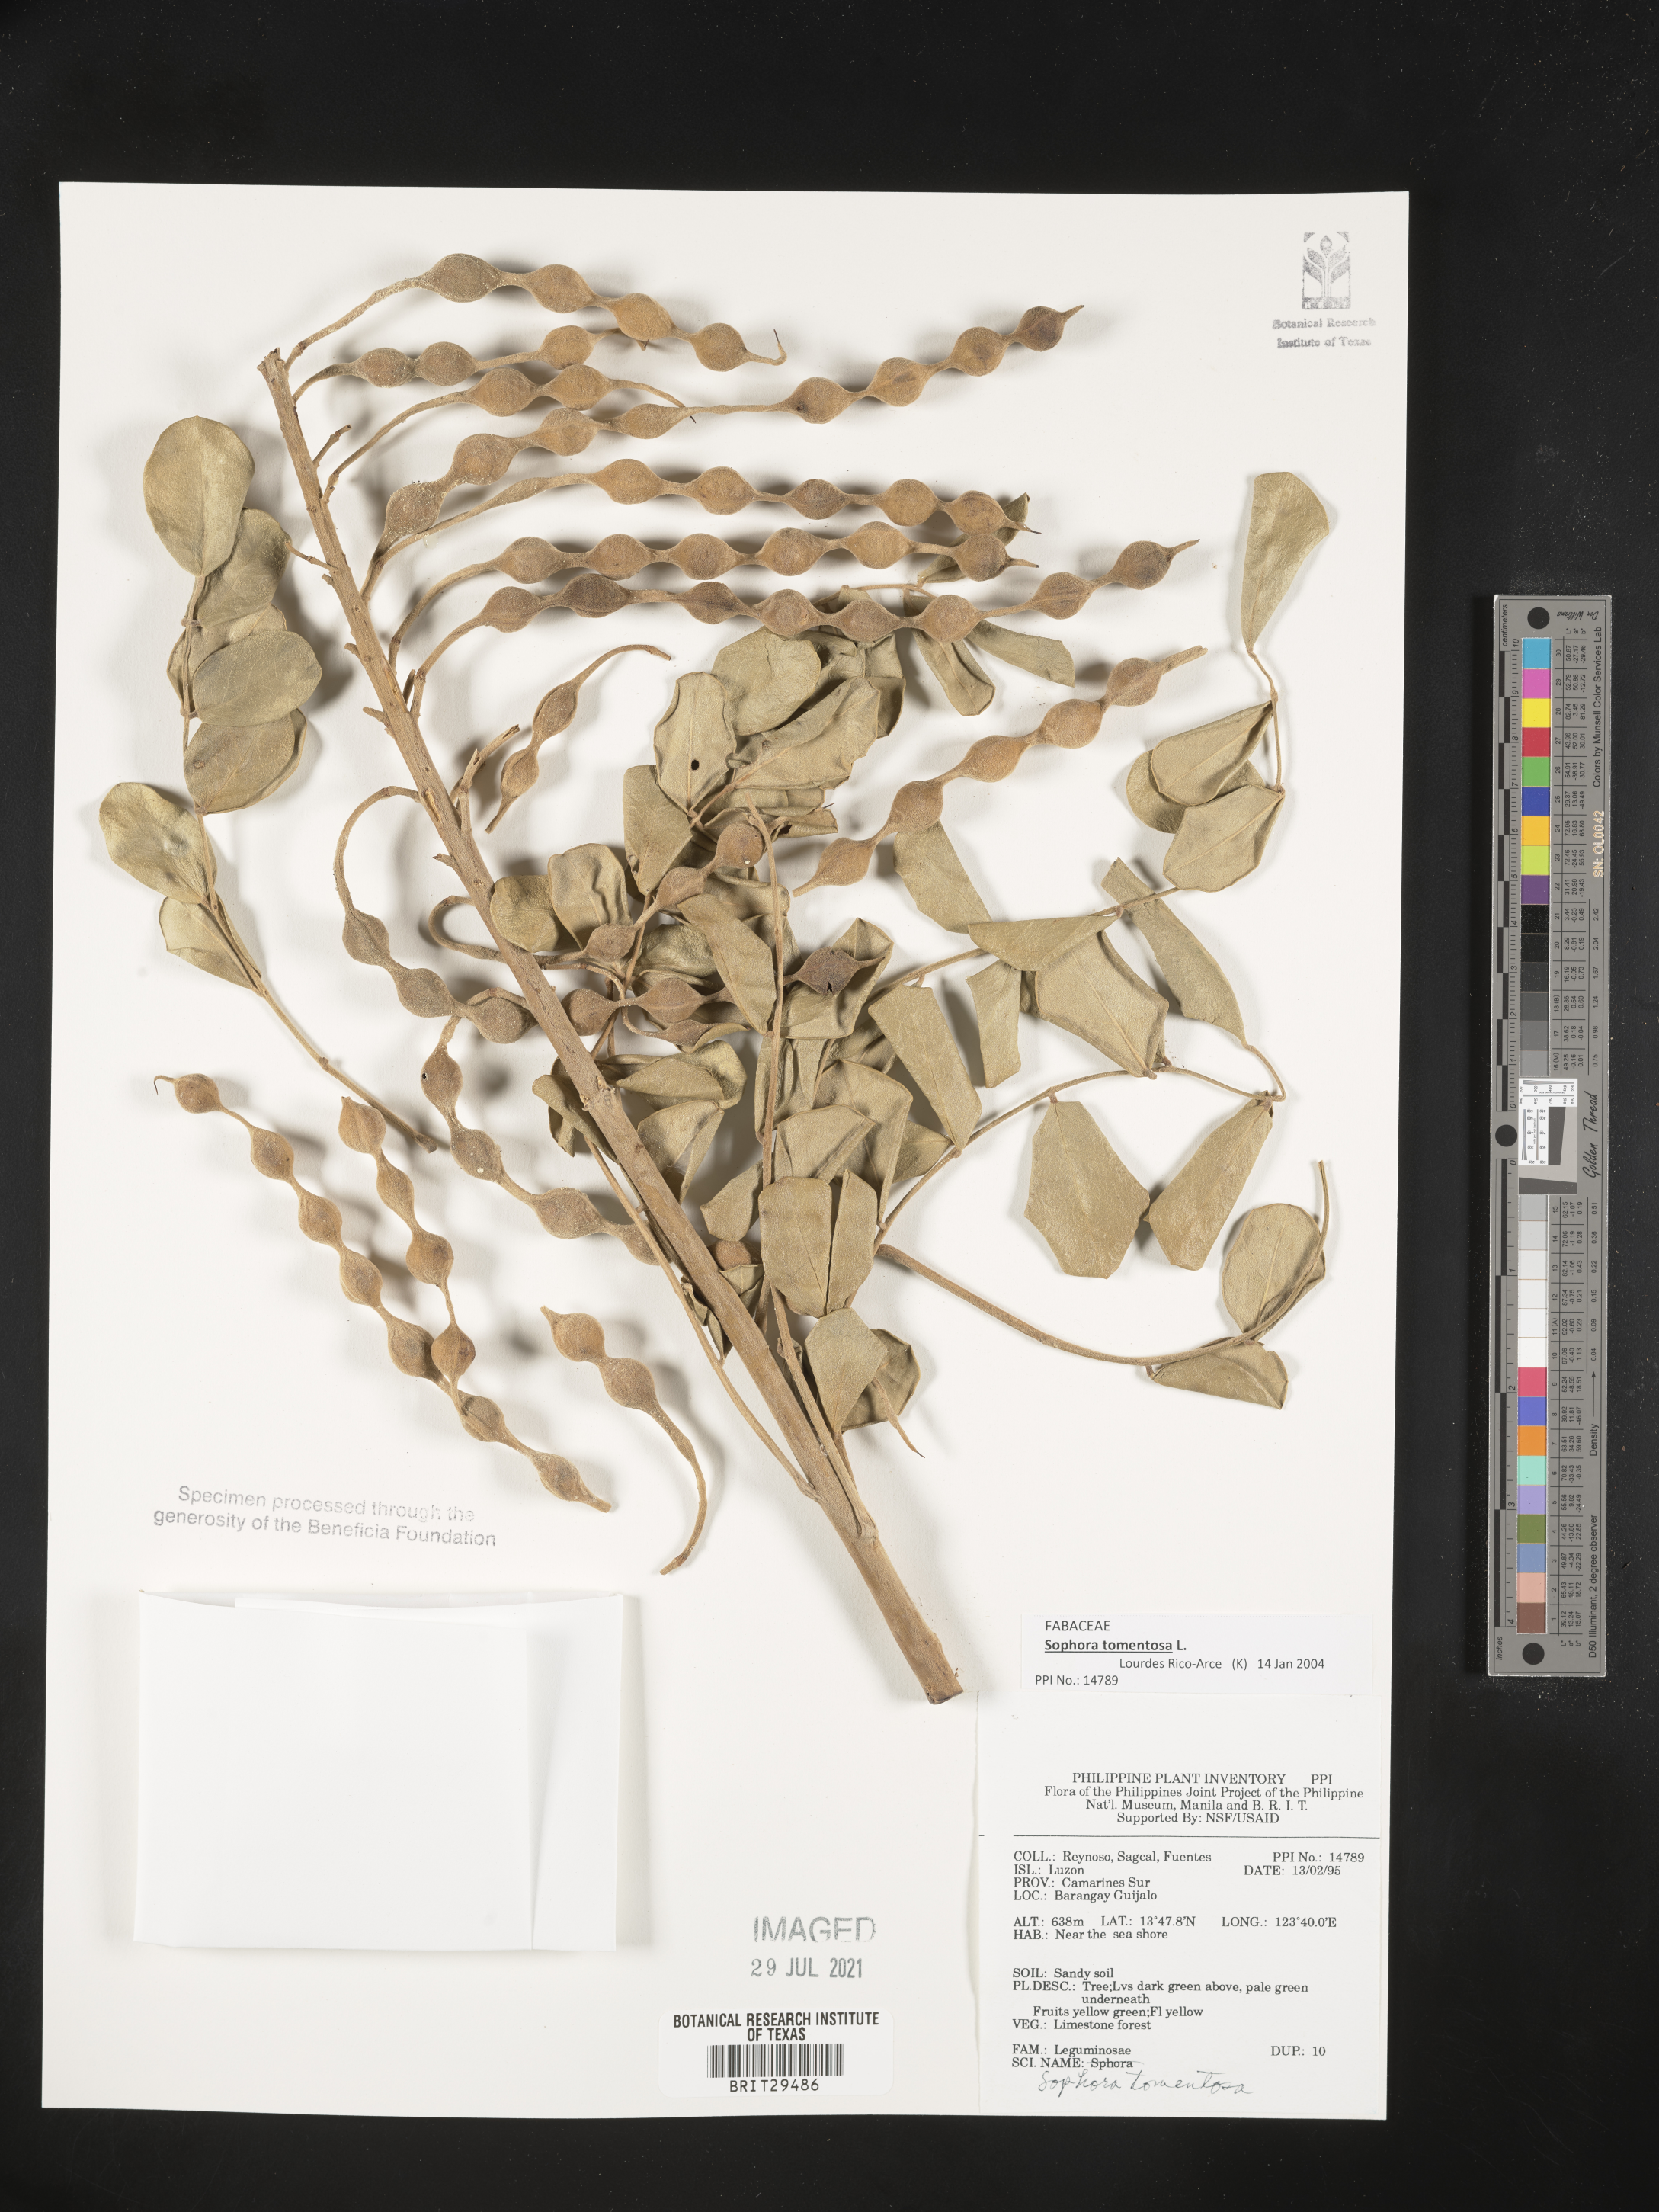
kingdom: Plantae
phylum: Tracheophyta
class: Magnoliopsida
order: Fabales
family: Fabaceae
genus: Sophora
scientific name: Sophora tomentosa
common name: Yellow necklacepod
